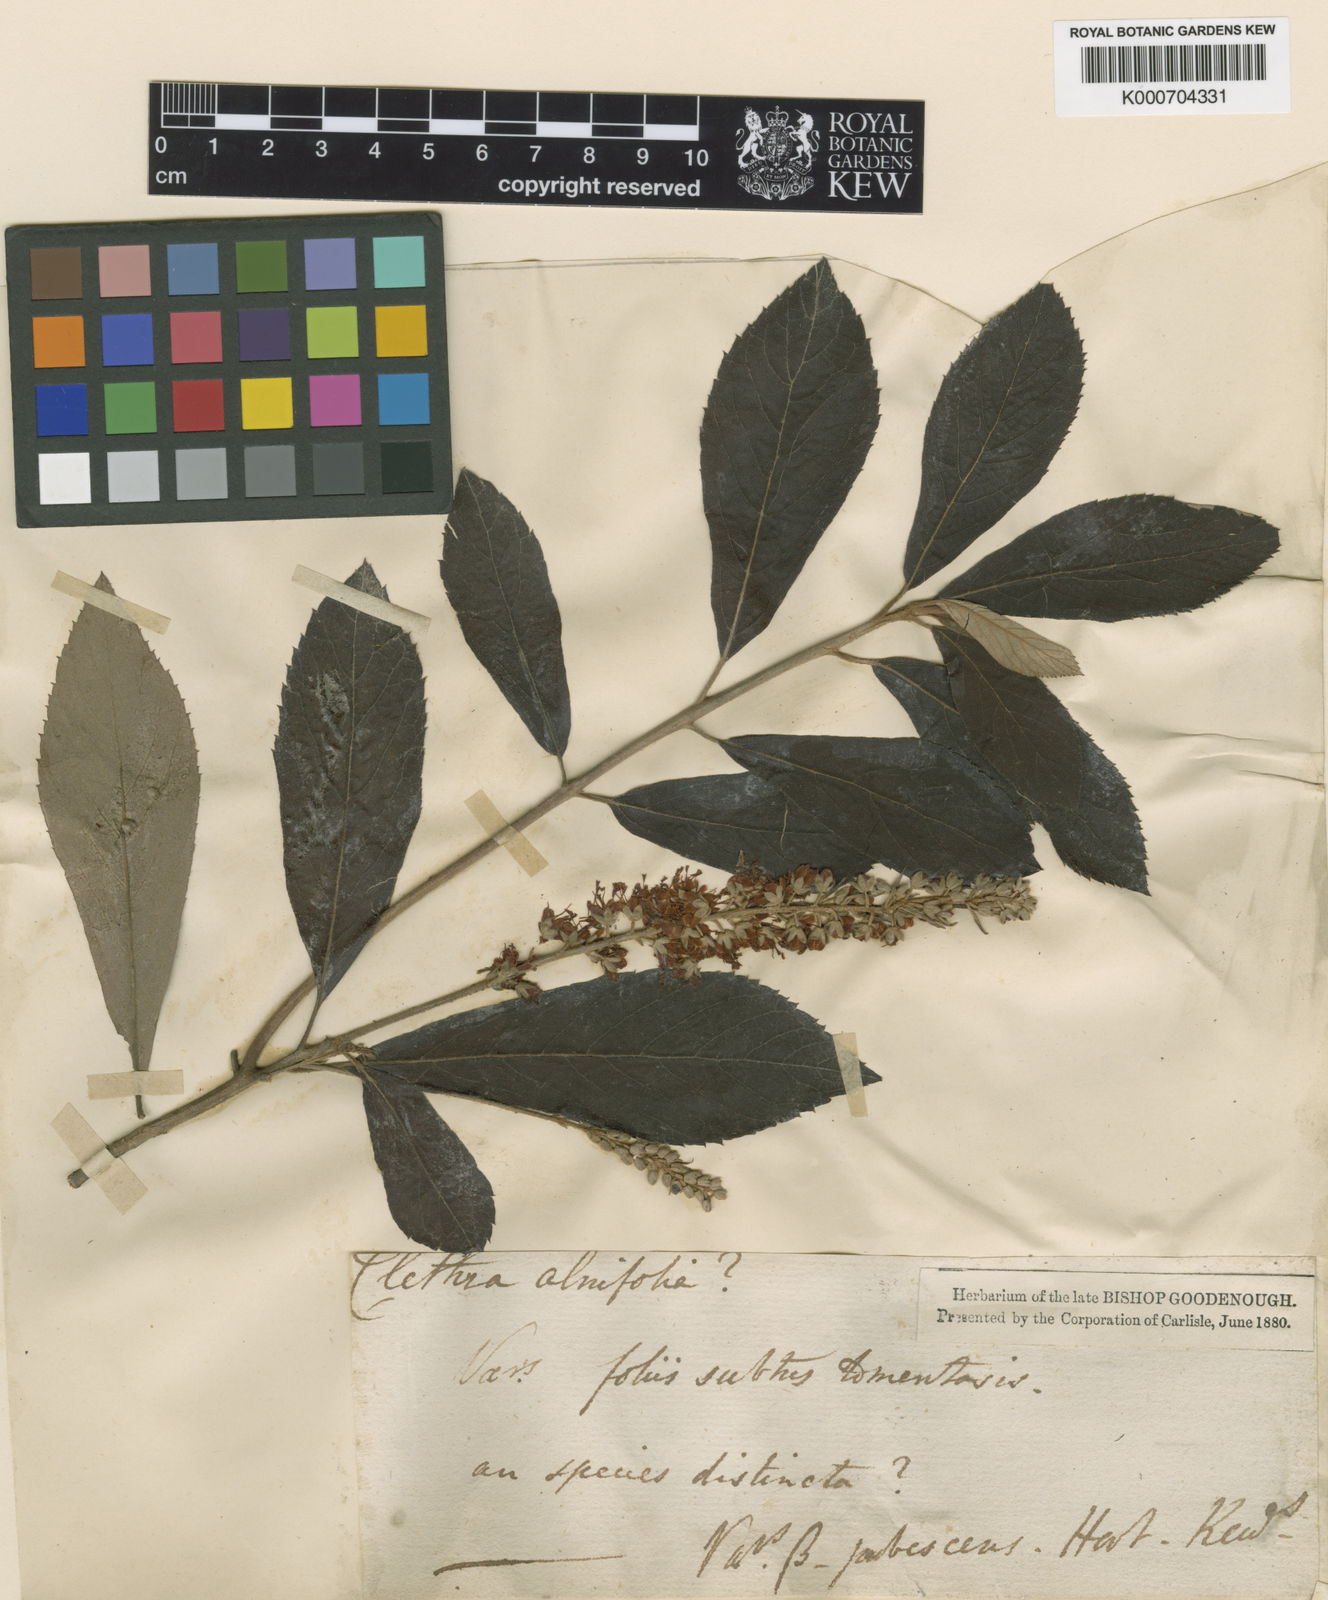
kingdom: Plantae
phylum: Tracheophyta
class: Magnoliopsida
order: Ericales
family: Clethraceae
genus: Clethra
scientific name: Clethra tomentosa
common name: Downy sweet pepperbush
